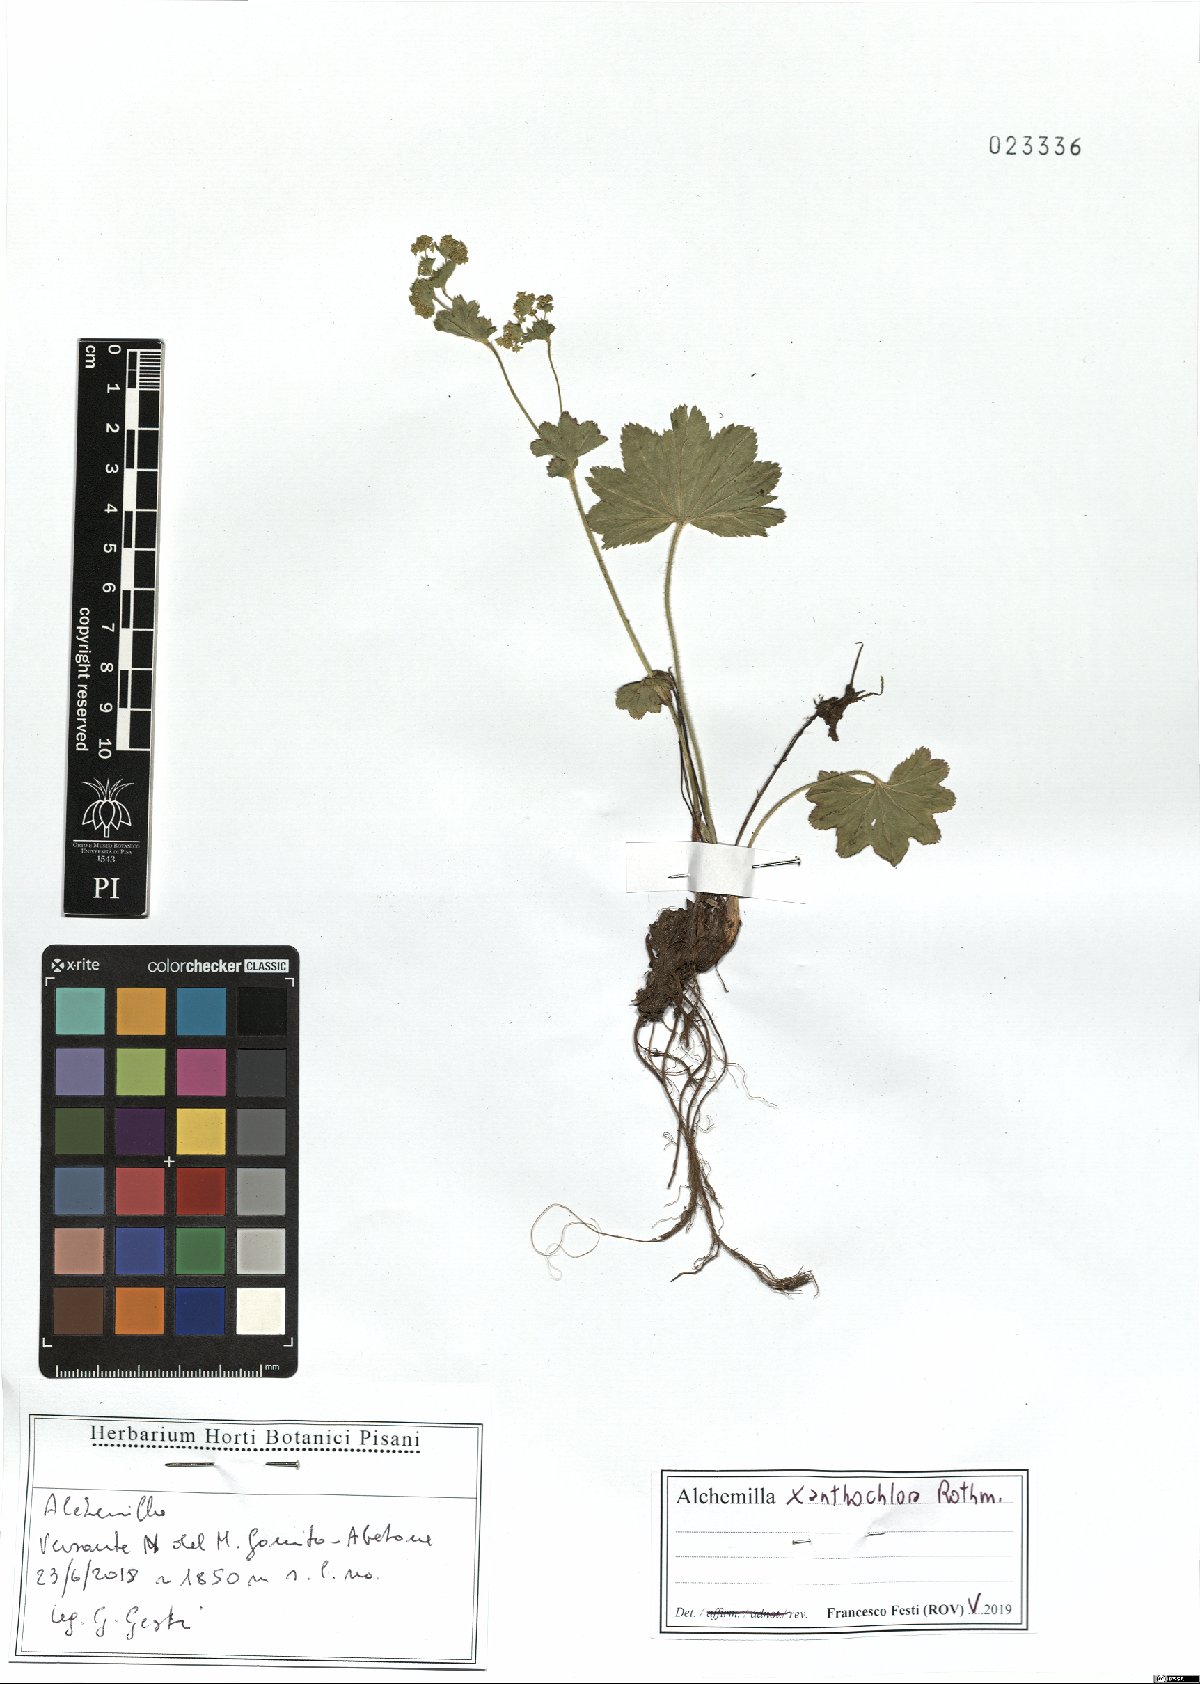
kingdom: Plantae
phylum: Tracheophyta
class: Magnoliopsida
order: Rosales
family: Rosaceae
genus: Alchemilla
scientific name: Alchemilla xanthochlora
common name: Intermediate lady's-mantle
